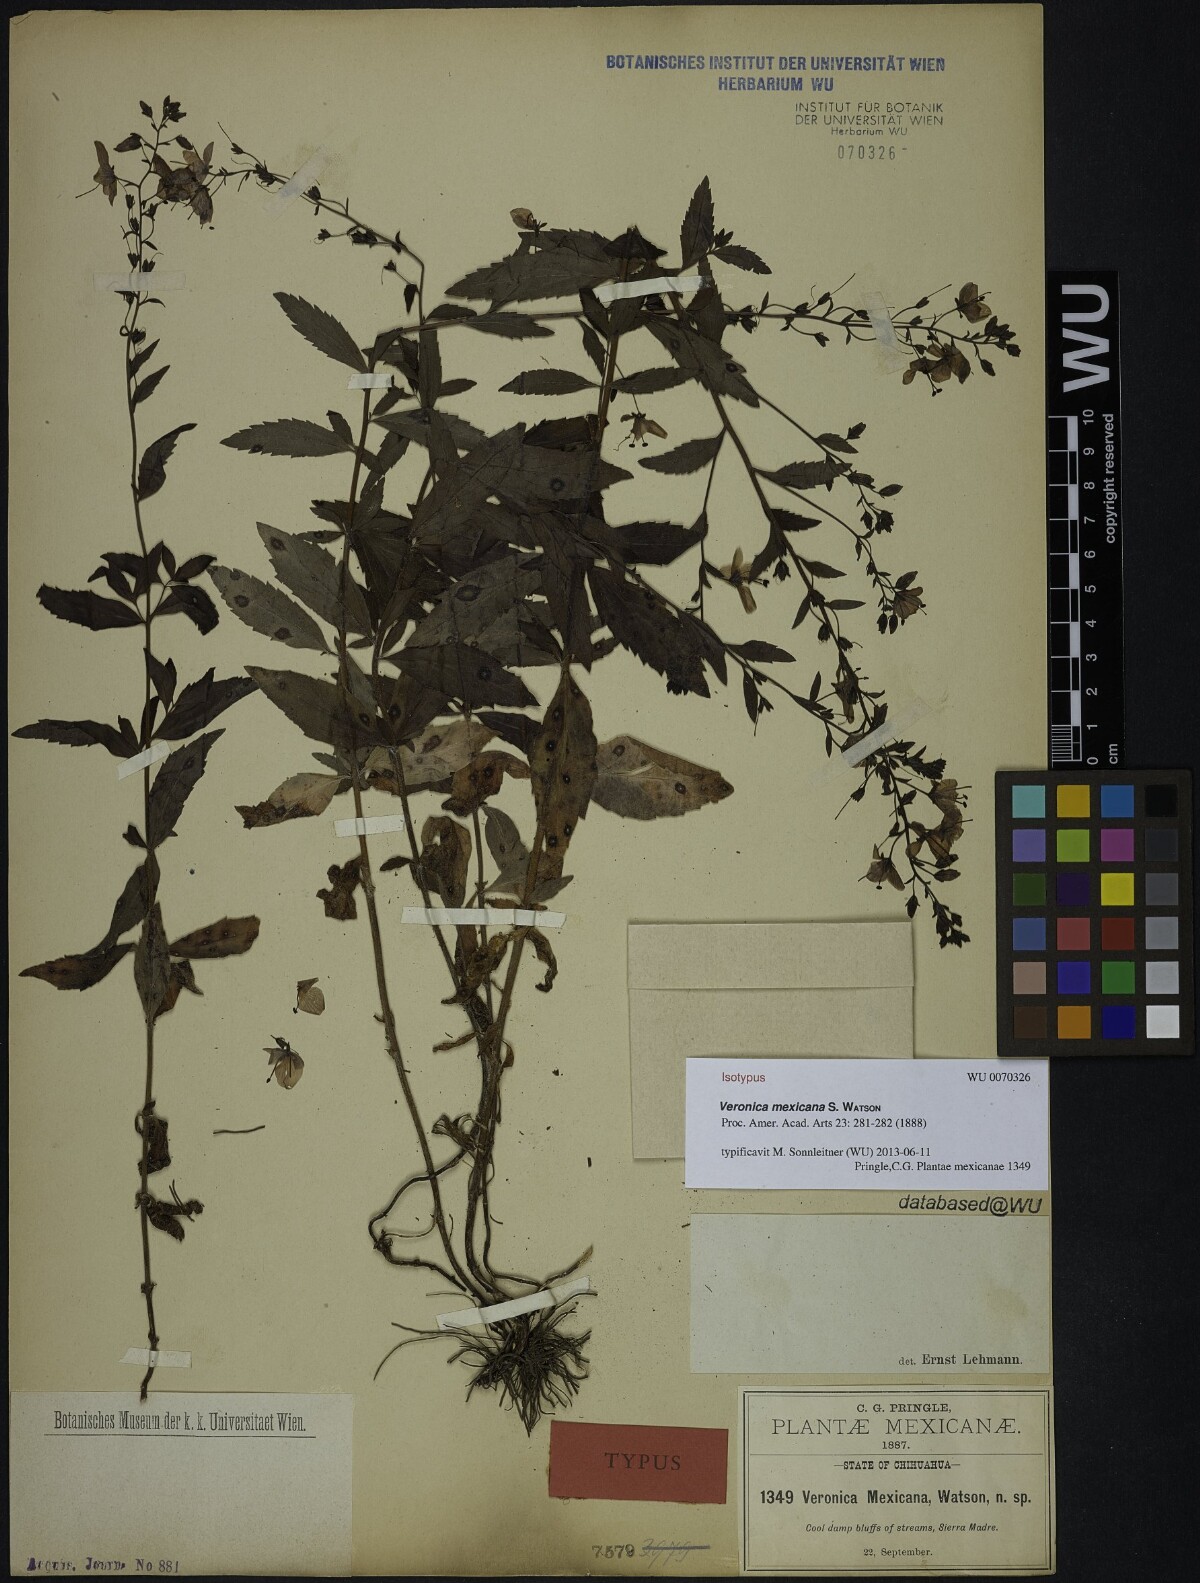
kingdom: Plantae
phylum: Tracheophyta
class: Magnoliopsida
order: Lamiales
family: Plantaginaceae
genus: Veronica
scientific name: Veronica mexicana
